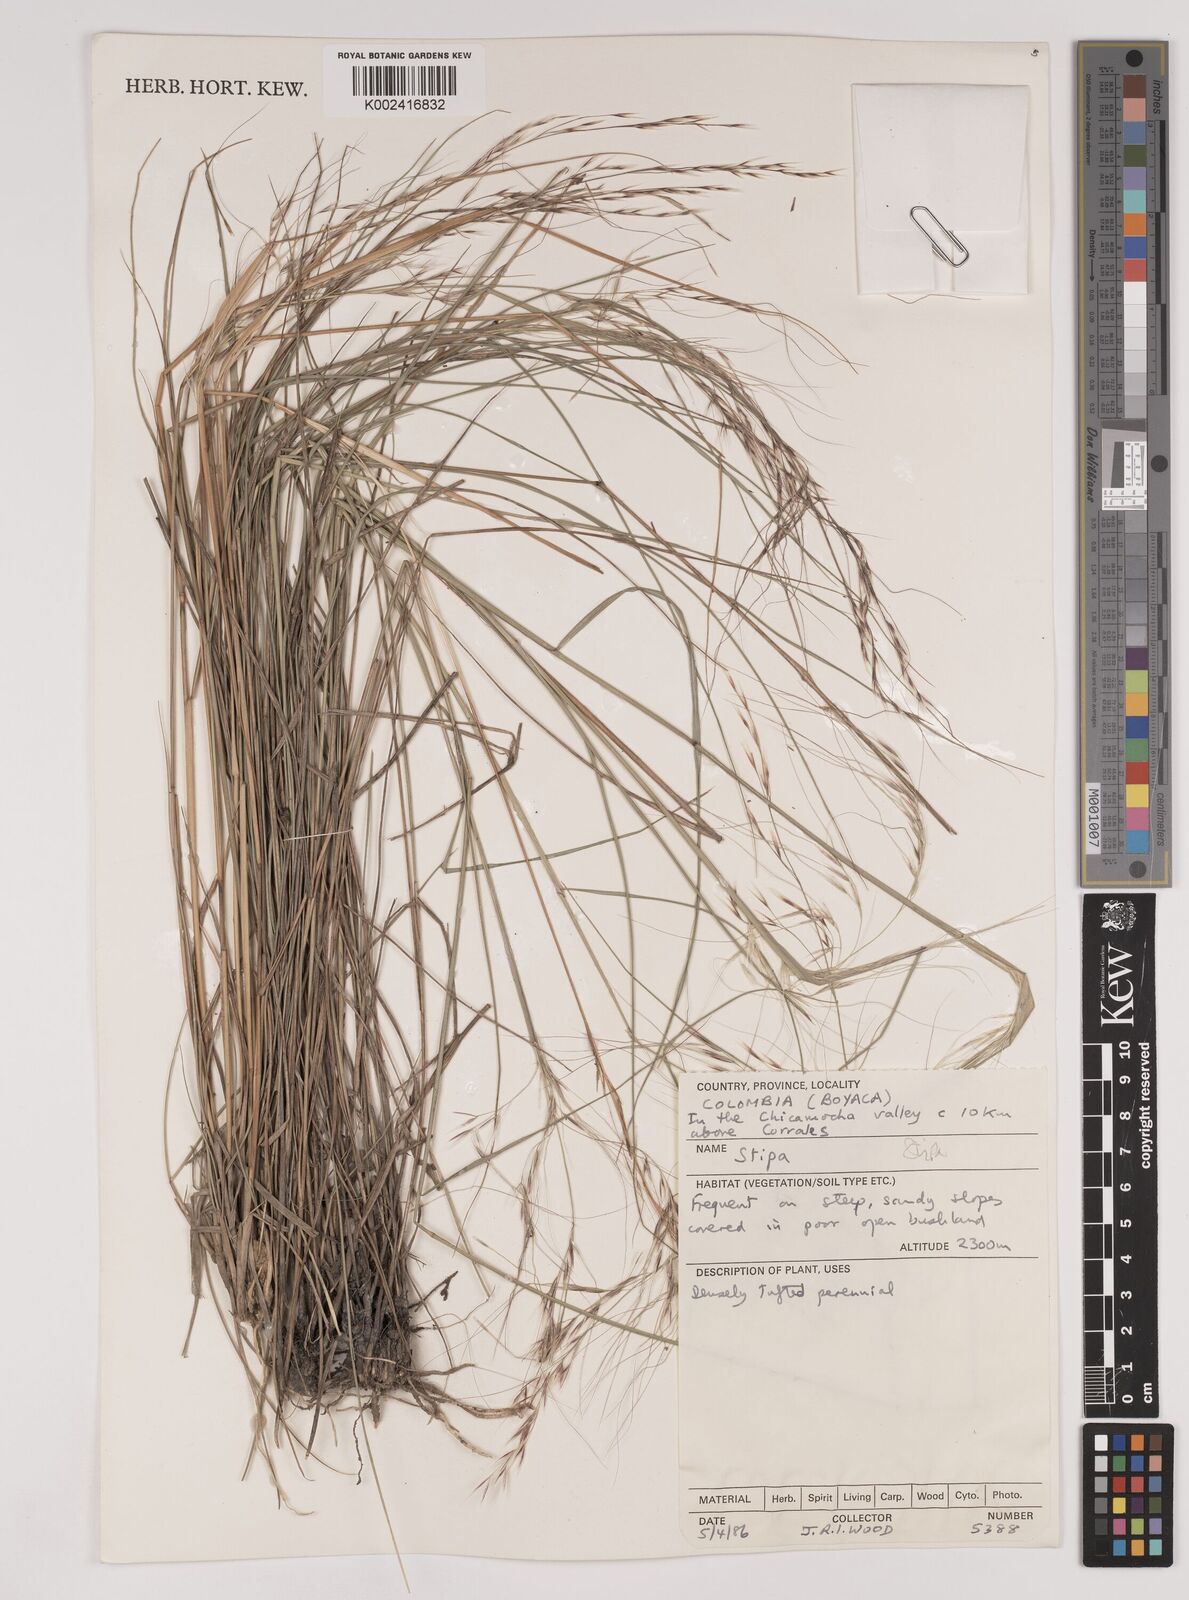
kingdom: Plantae
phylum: Tracheophyta
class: Liliopsida
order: Poales
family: Poaceae
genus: Stipa
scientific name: Stipa
